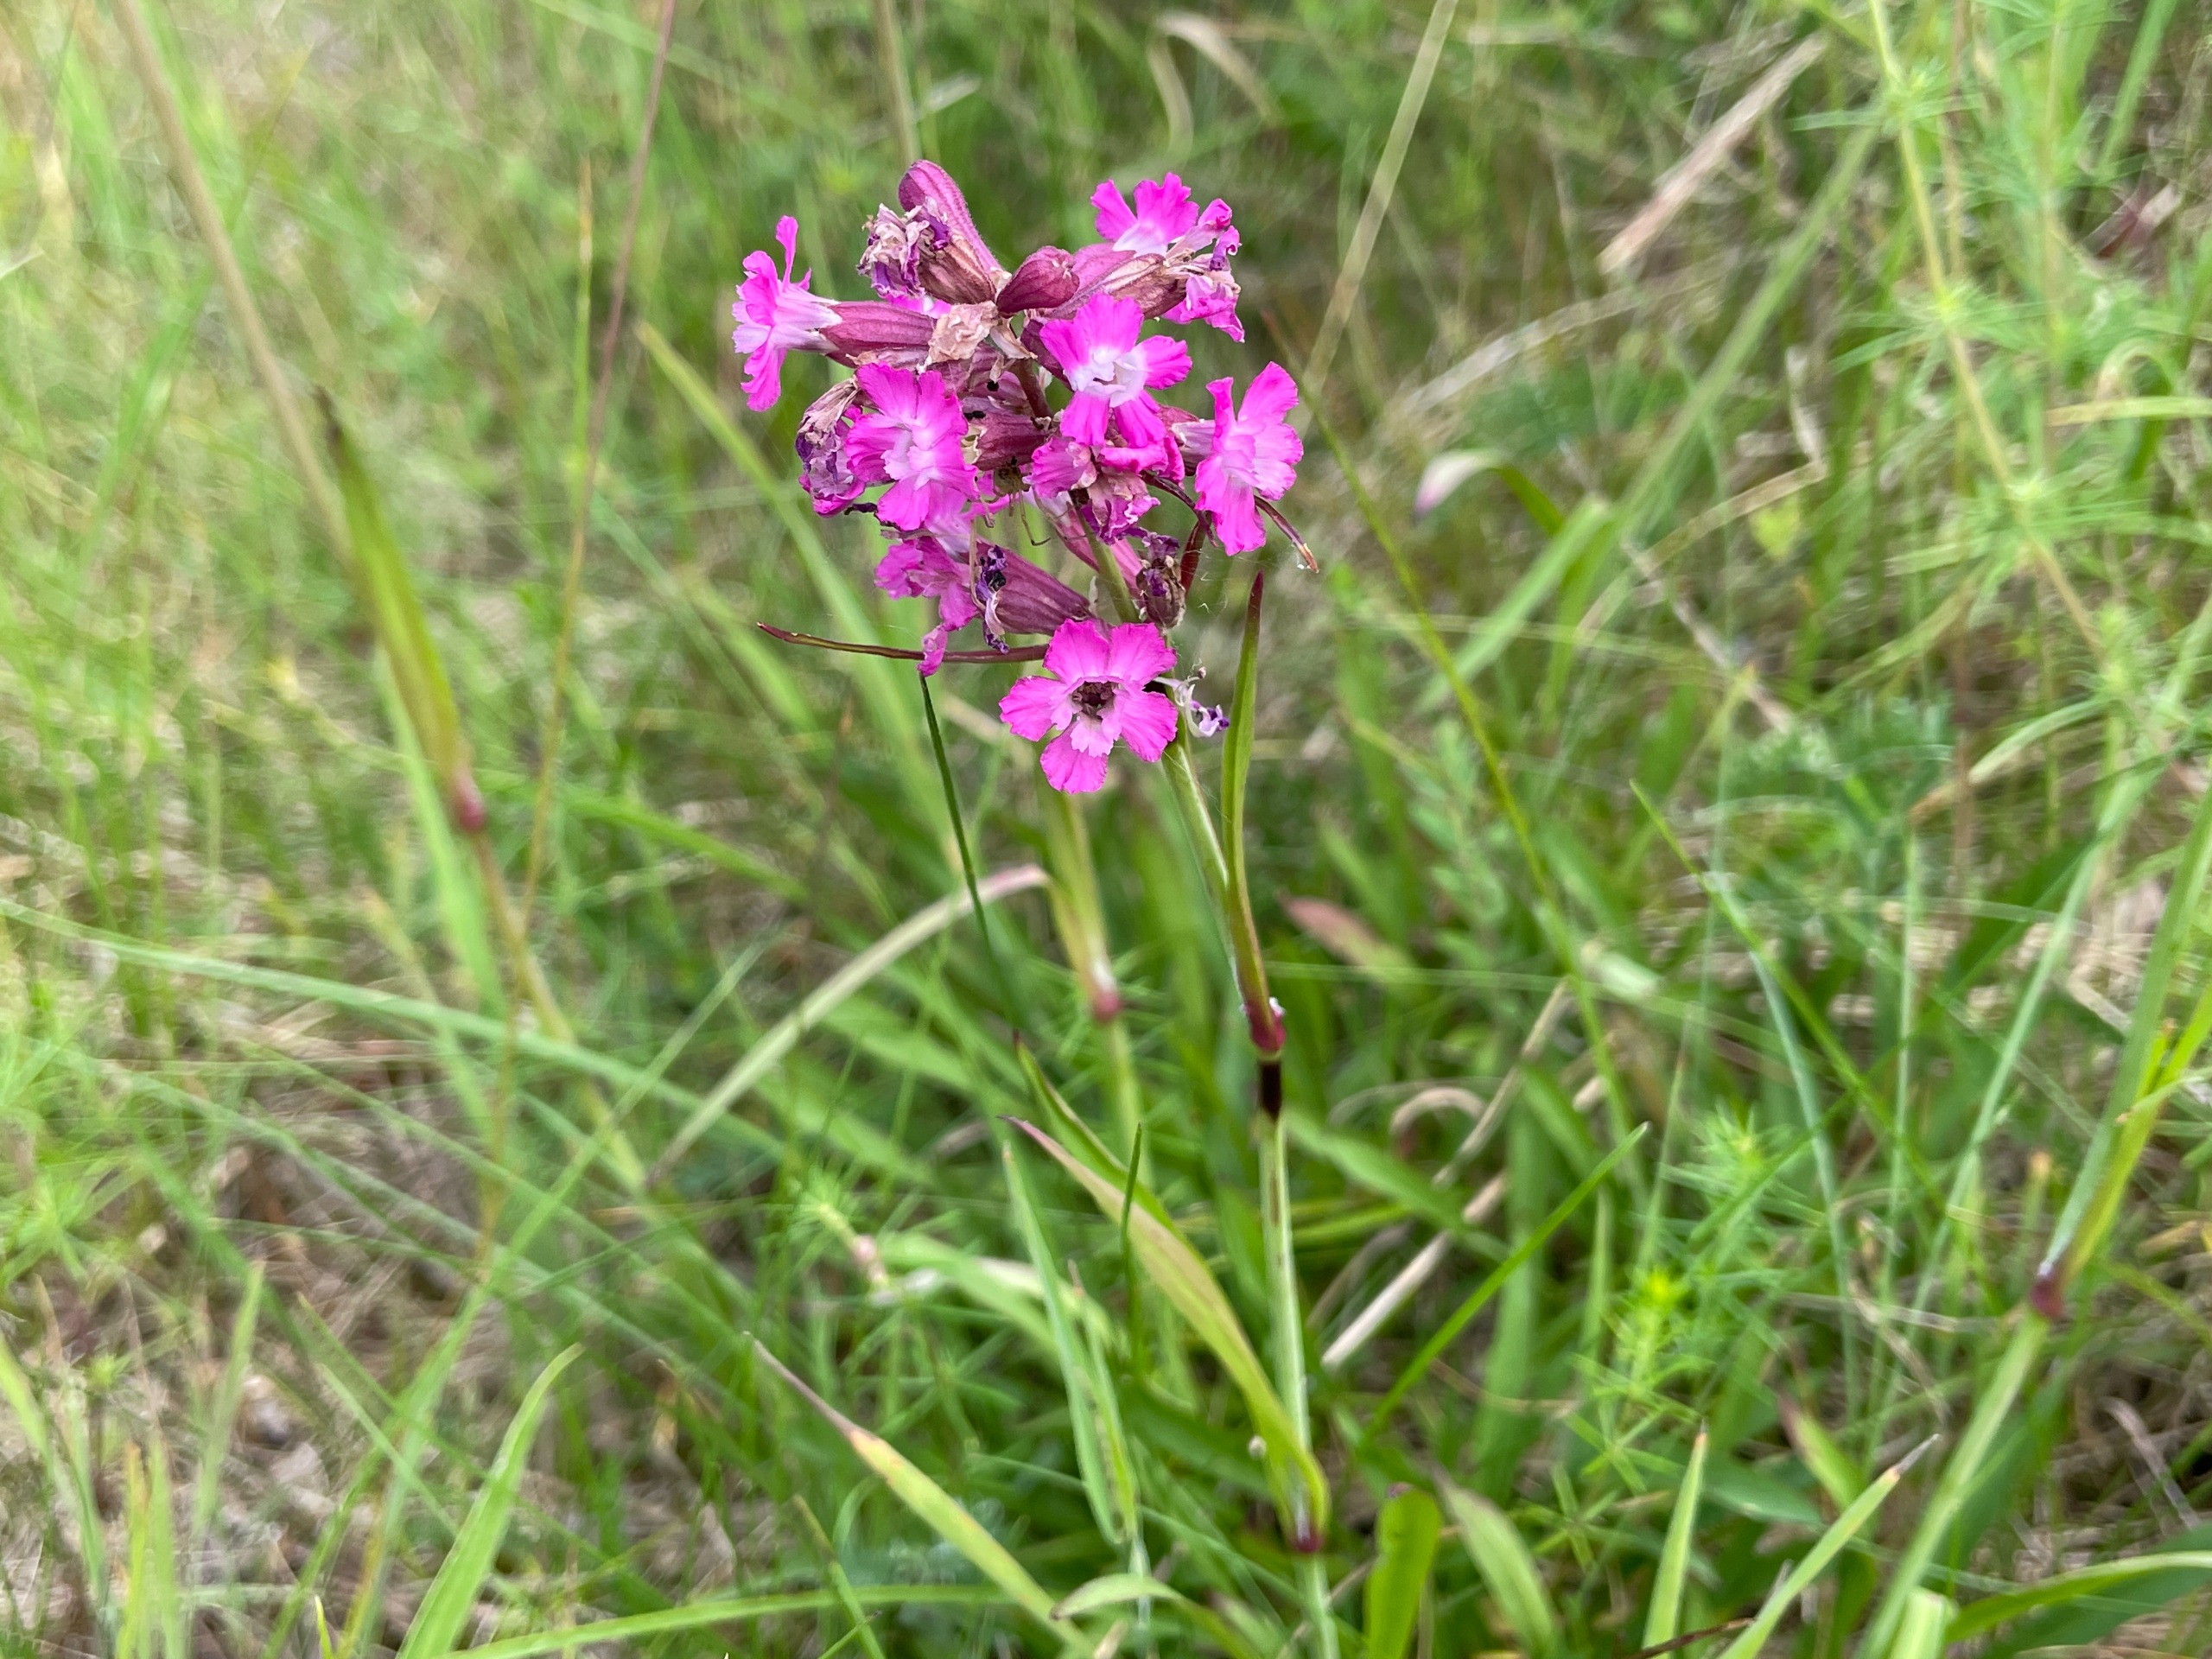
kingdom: Plantae
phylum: Tracheophyta
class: Magnoliopsida
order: Caryophyllales
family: Caryophyllaceae
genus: Viscaria
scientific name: Viscaria vulgaris
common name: Tjærenellike
